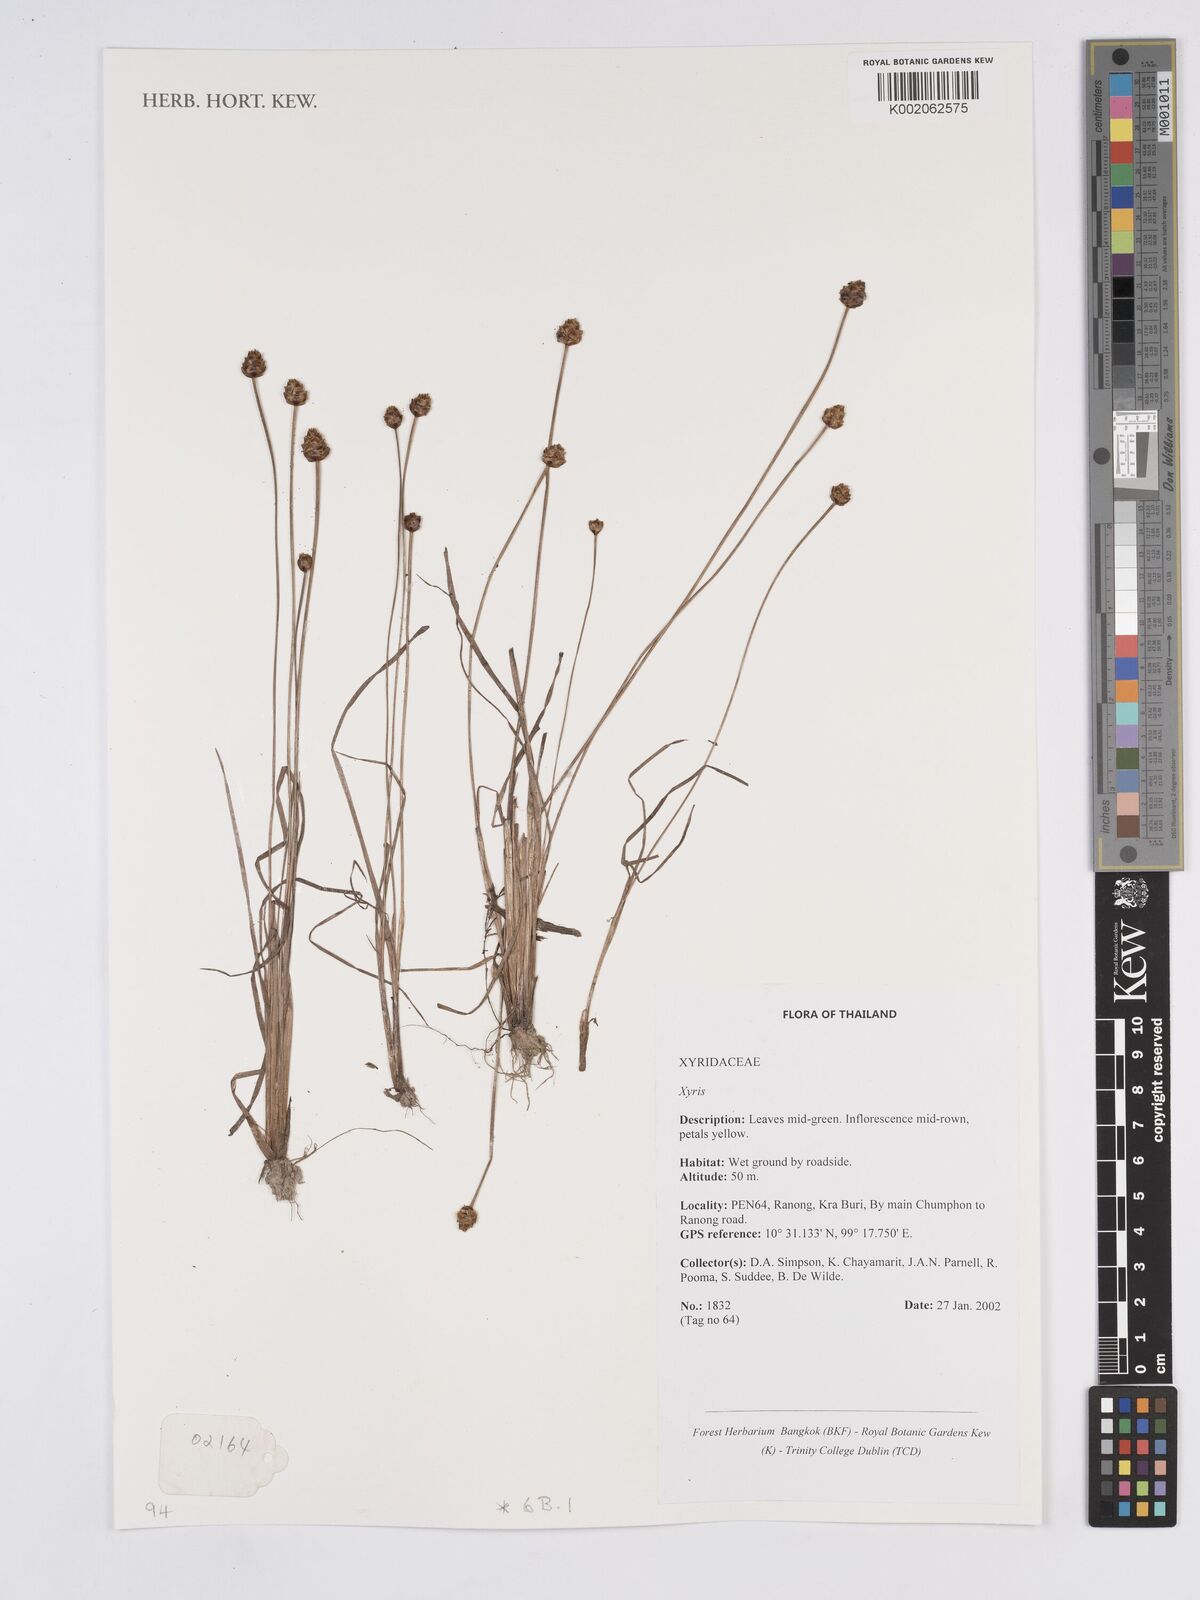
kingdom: Plantae
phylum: Tracheophyta
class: Liliopsida
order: Poales
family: Xyridaceae
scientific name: Xyridaceae
